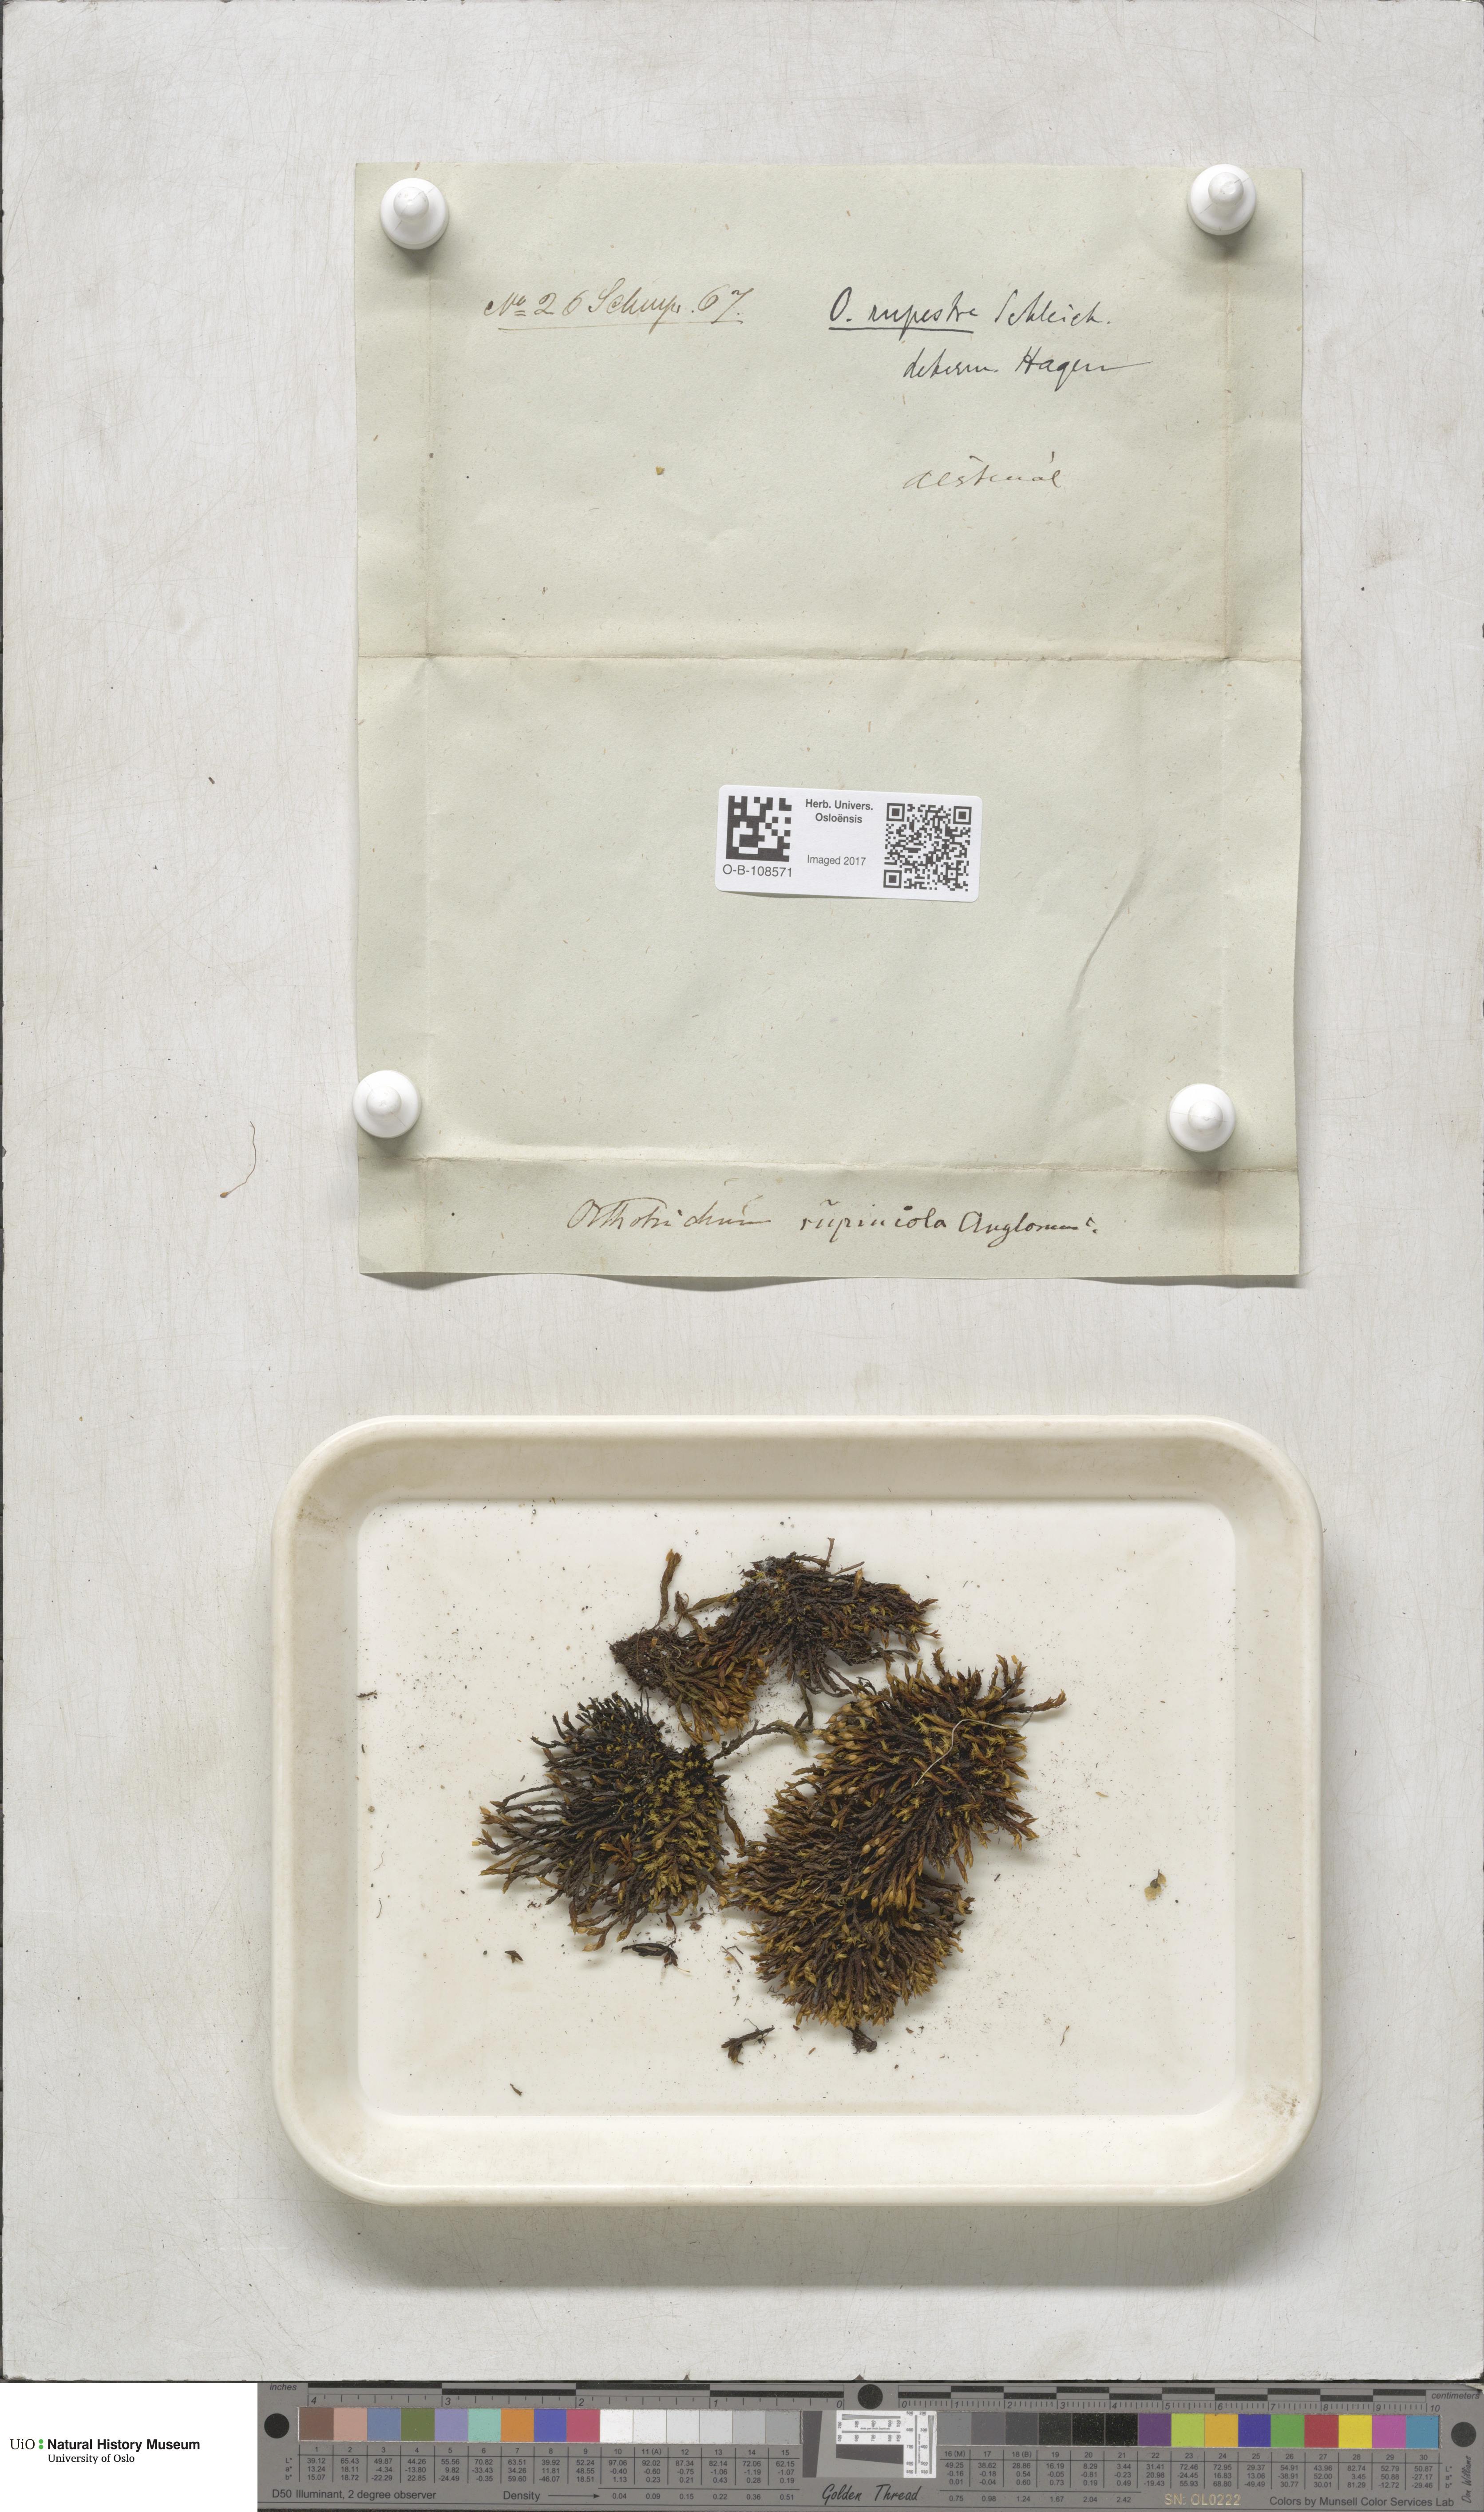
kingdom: Plantae
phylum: Bryophyta
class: Bryopsida
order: Orthotrichales
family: Orthotrichaceae
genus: Lewinskya
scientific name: Lewinskya rupestris
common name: Rock bristle-moss
